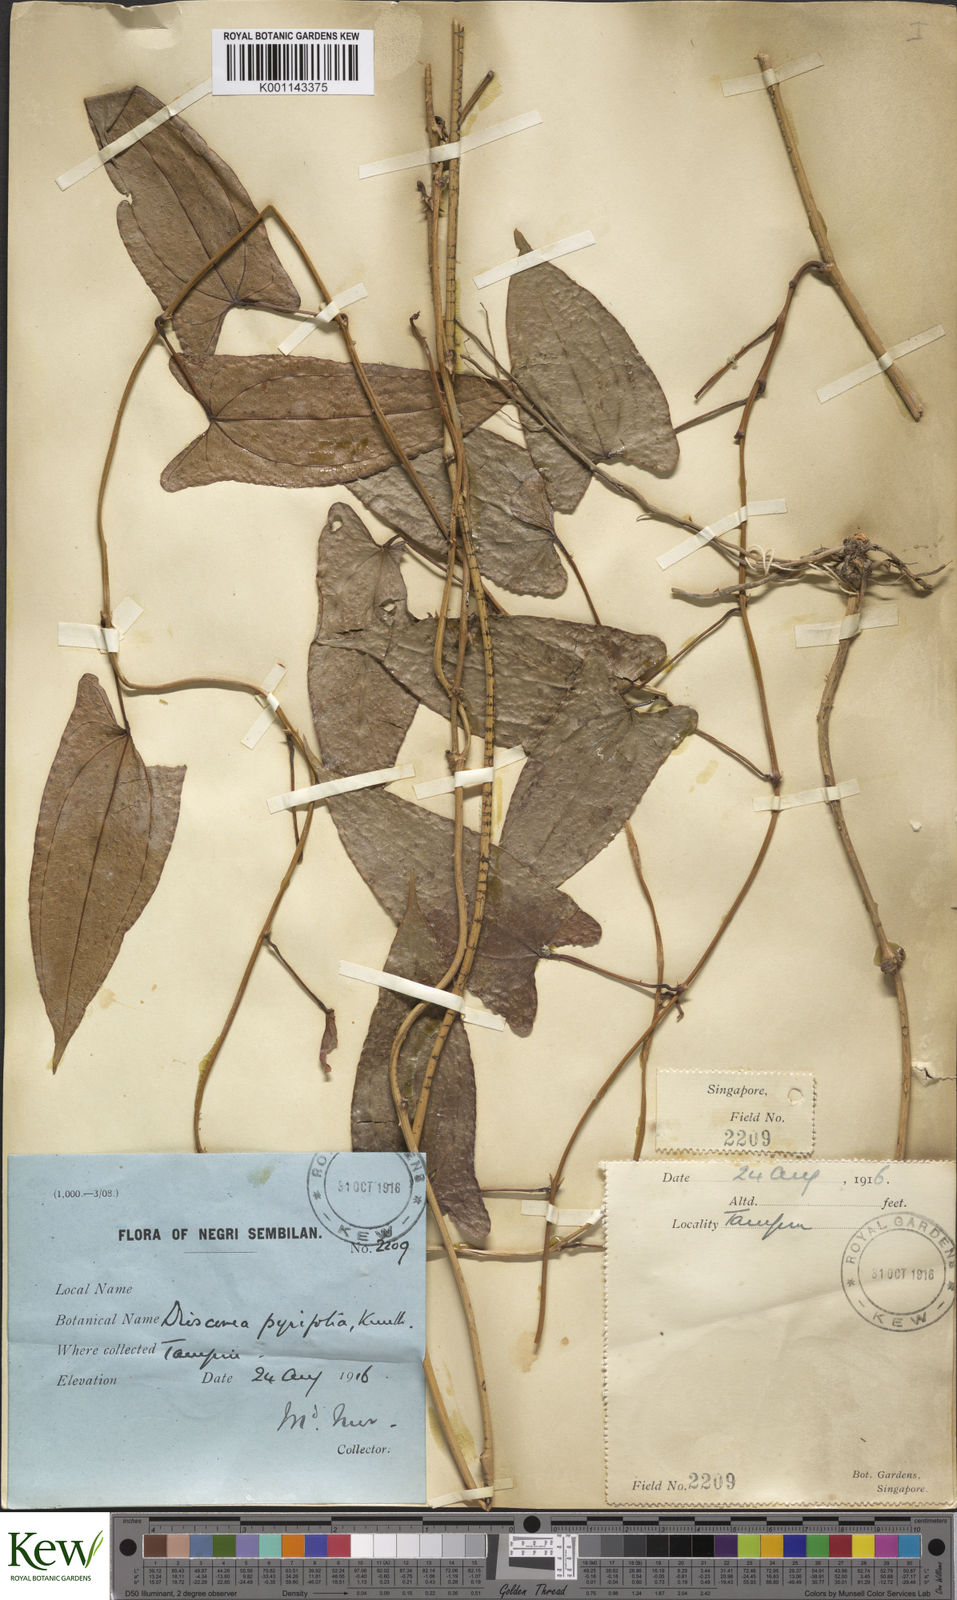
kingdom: Plantae
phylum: Tracheophyta
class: Liliopsida
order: Dioscoreales
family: Dioscoreaceae
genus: Dioscorea
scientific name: Dioscorea pyrifolia
